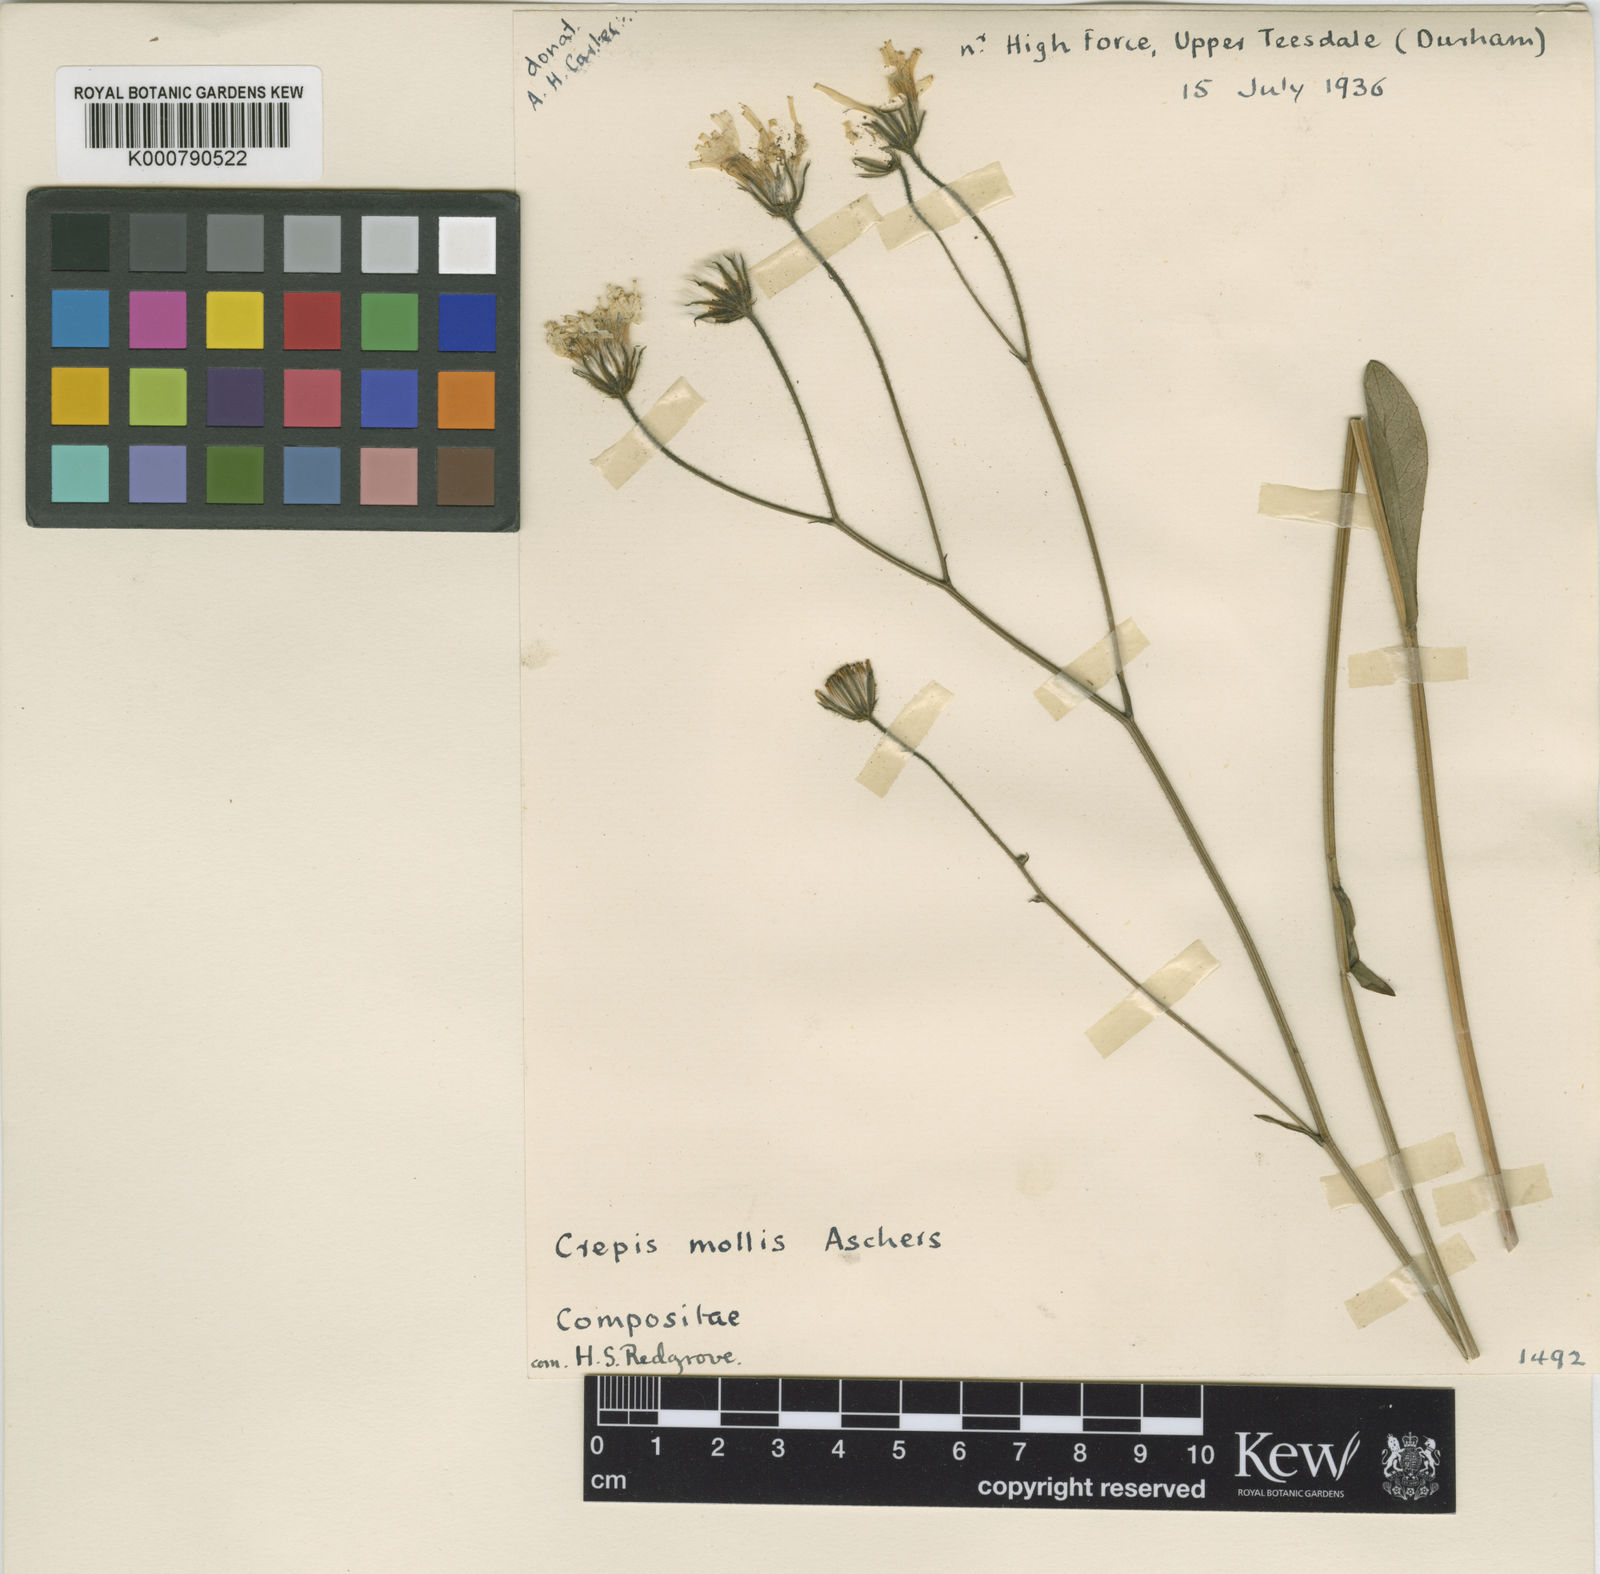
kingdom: Plantae
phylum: Tracheophyta
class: Magnoliopsida
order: Asterales
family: Asteraceae
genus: Crepis
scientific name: Crepis mollis
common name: Northern hawk's-beard
